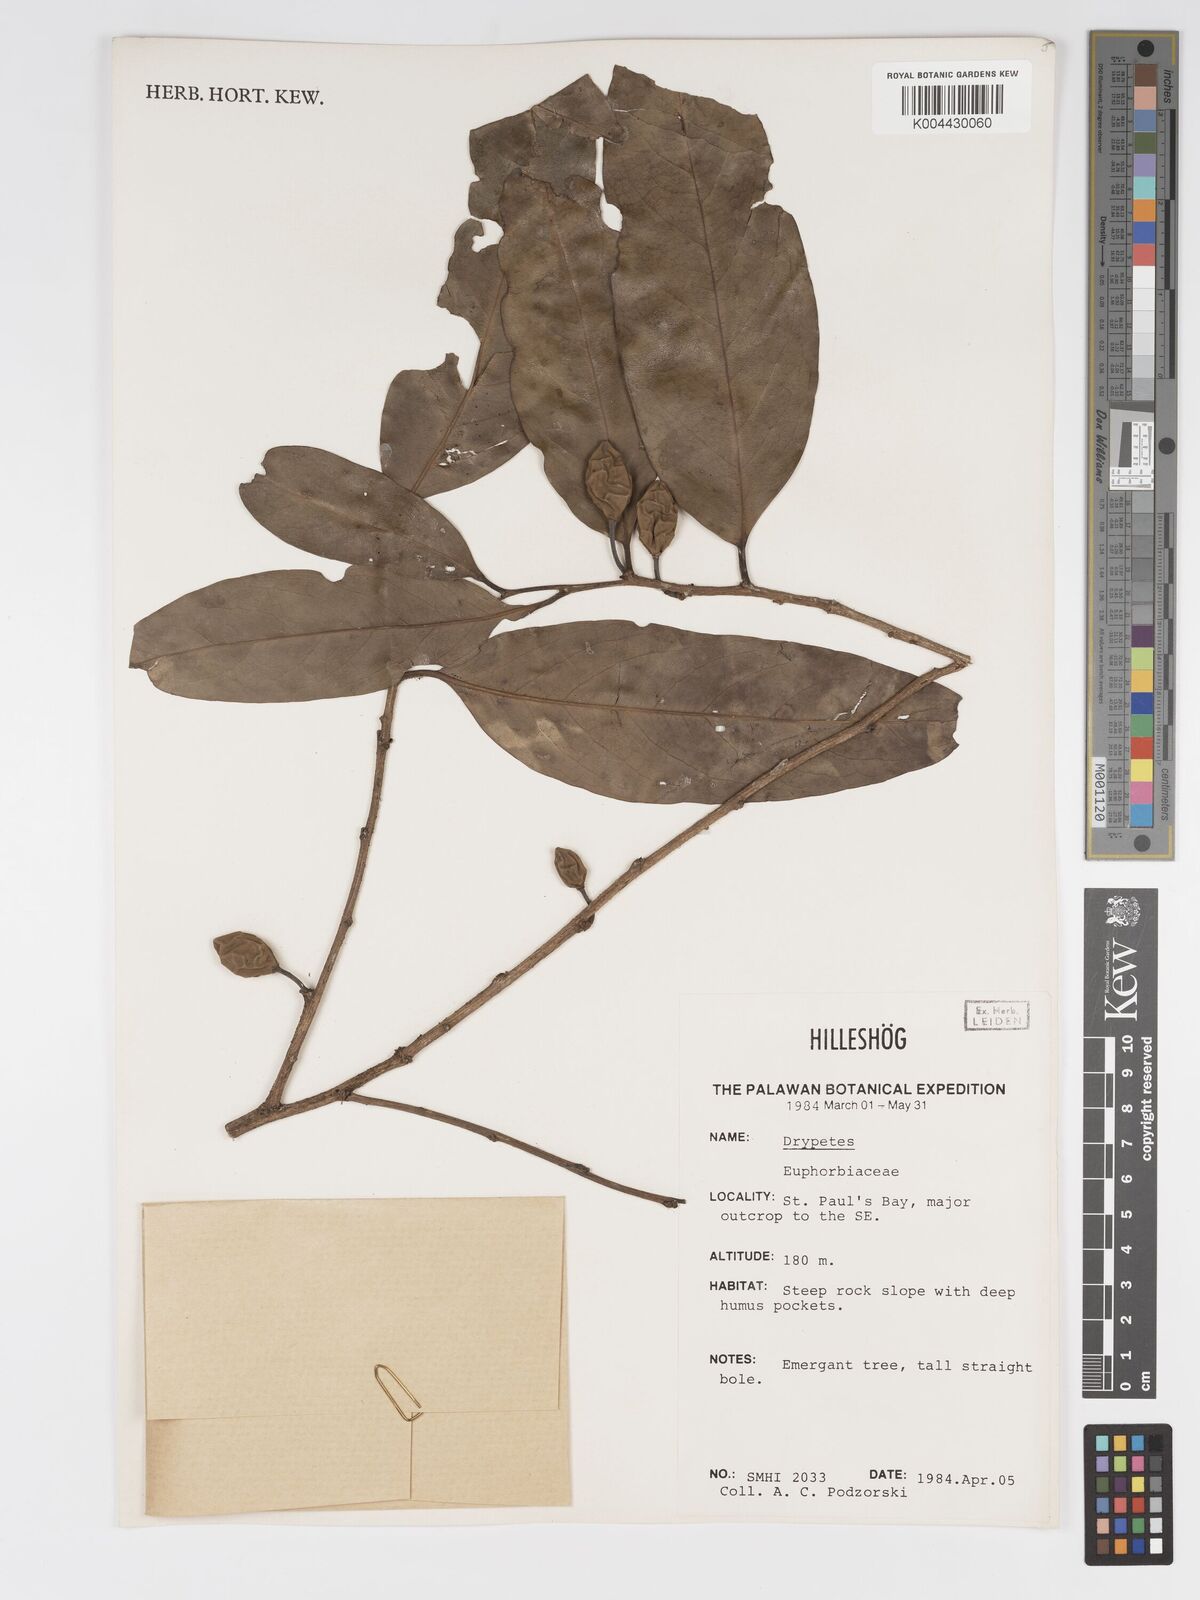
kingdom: Plantae
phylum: Tracheophyta
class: Magnoliopsida
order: Malpighiales
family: Putranjivaceae
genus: Drypetes
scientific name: Drypetes
